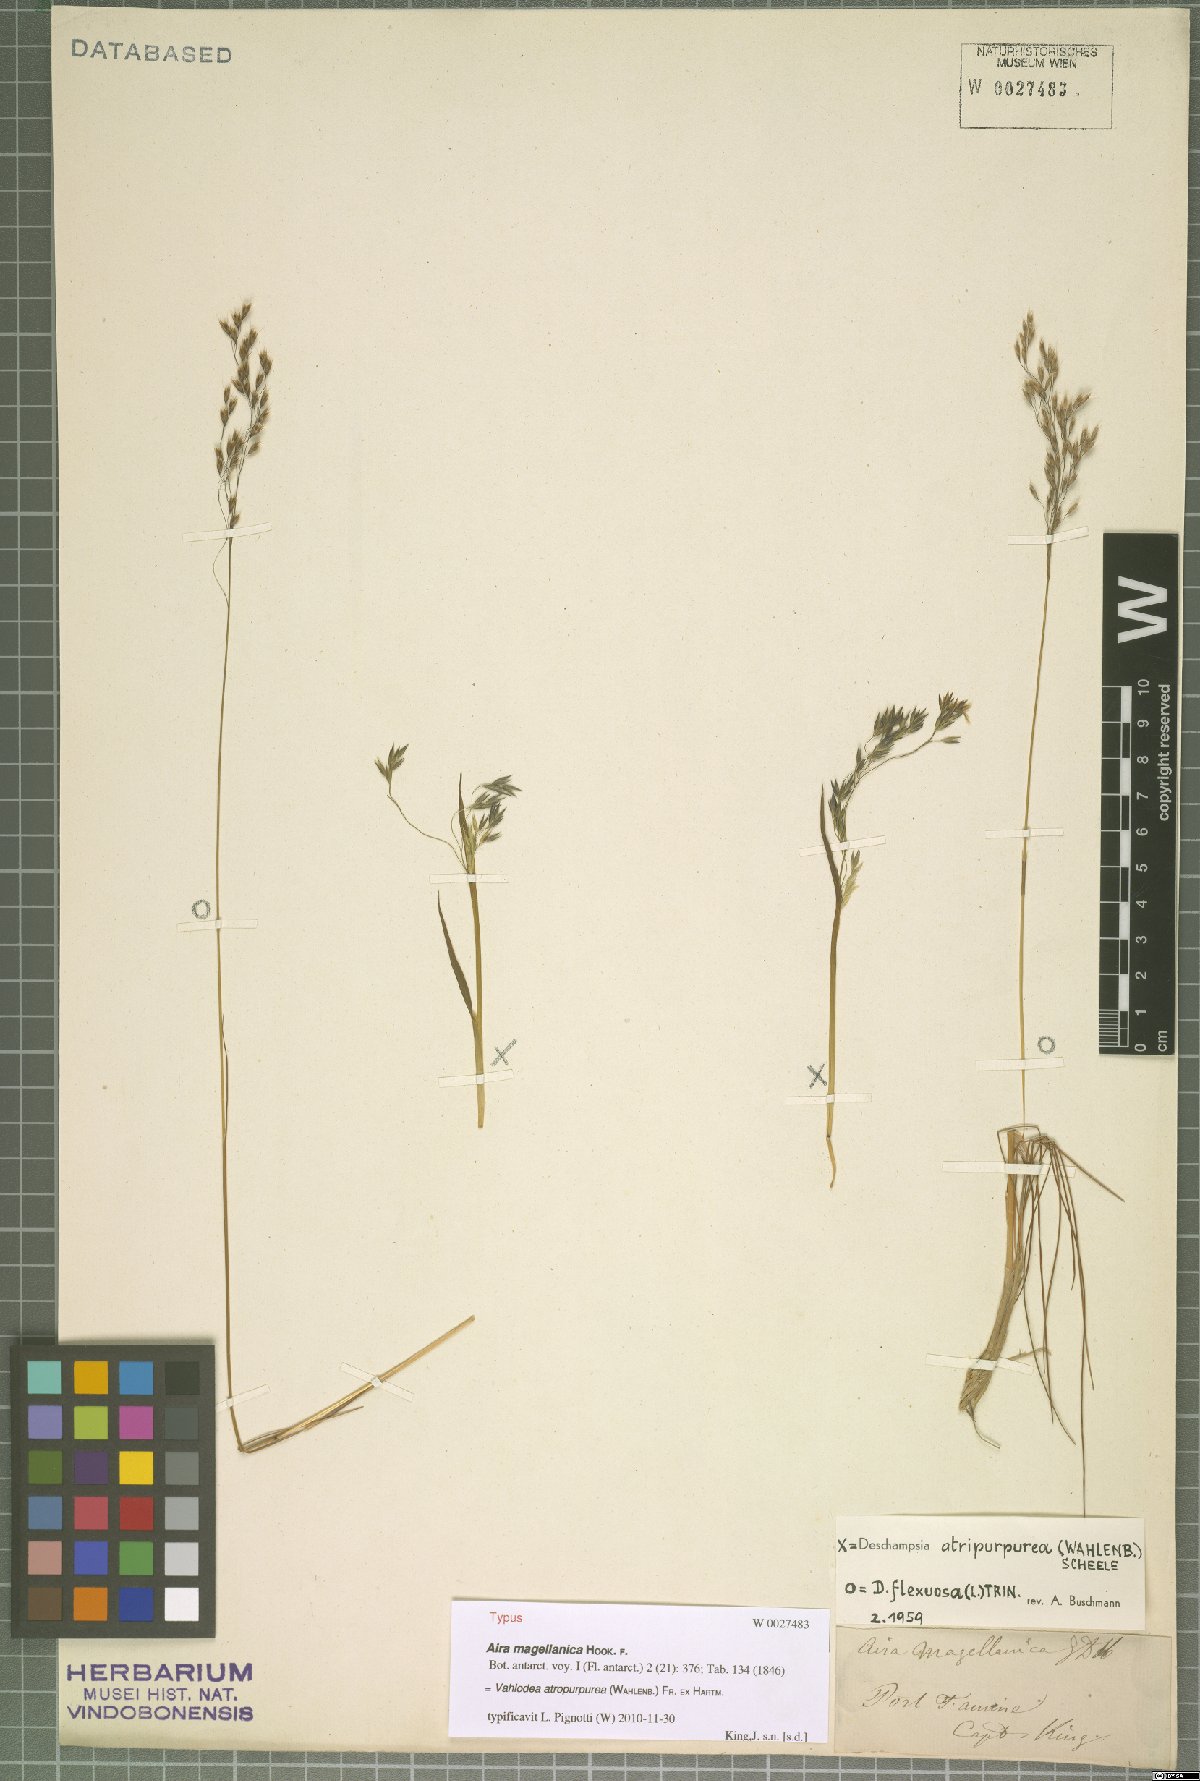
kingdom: Plantae
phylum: Tracheophyta
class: Liliopsida
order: Poales
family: Poaceae
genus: Vahlodea
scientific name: Vahlodea atropurpurea
